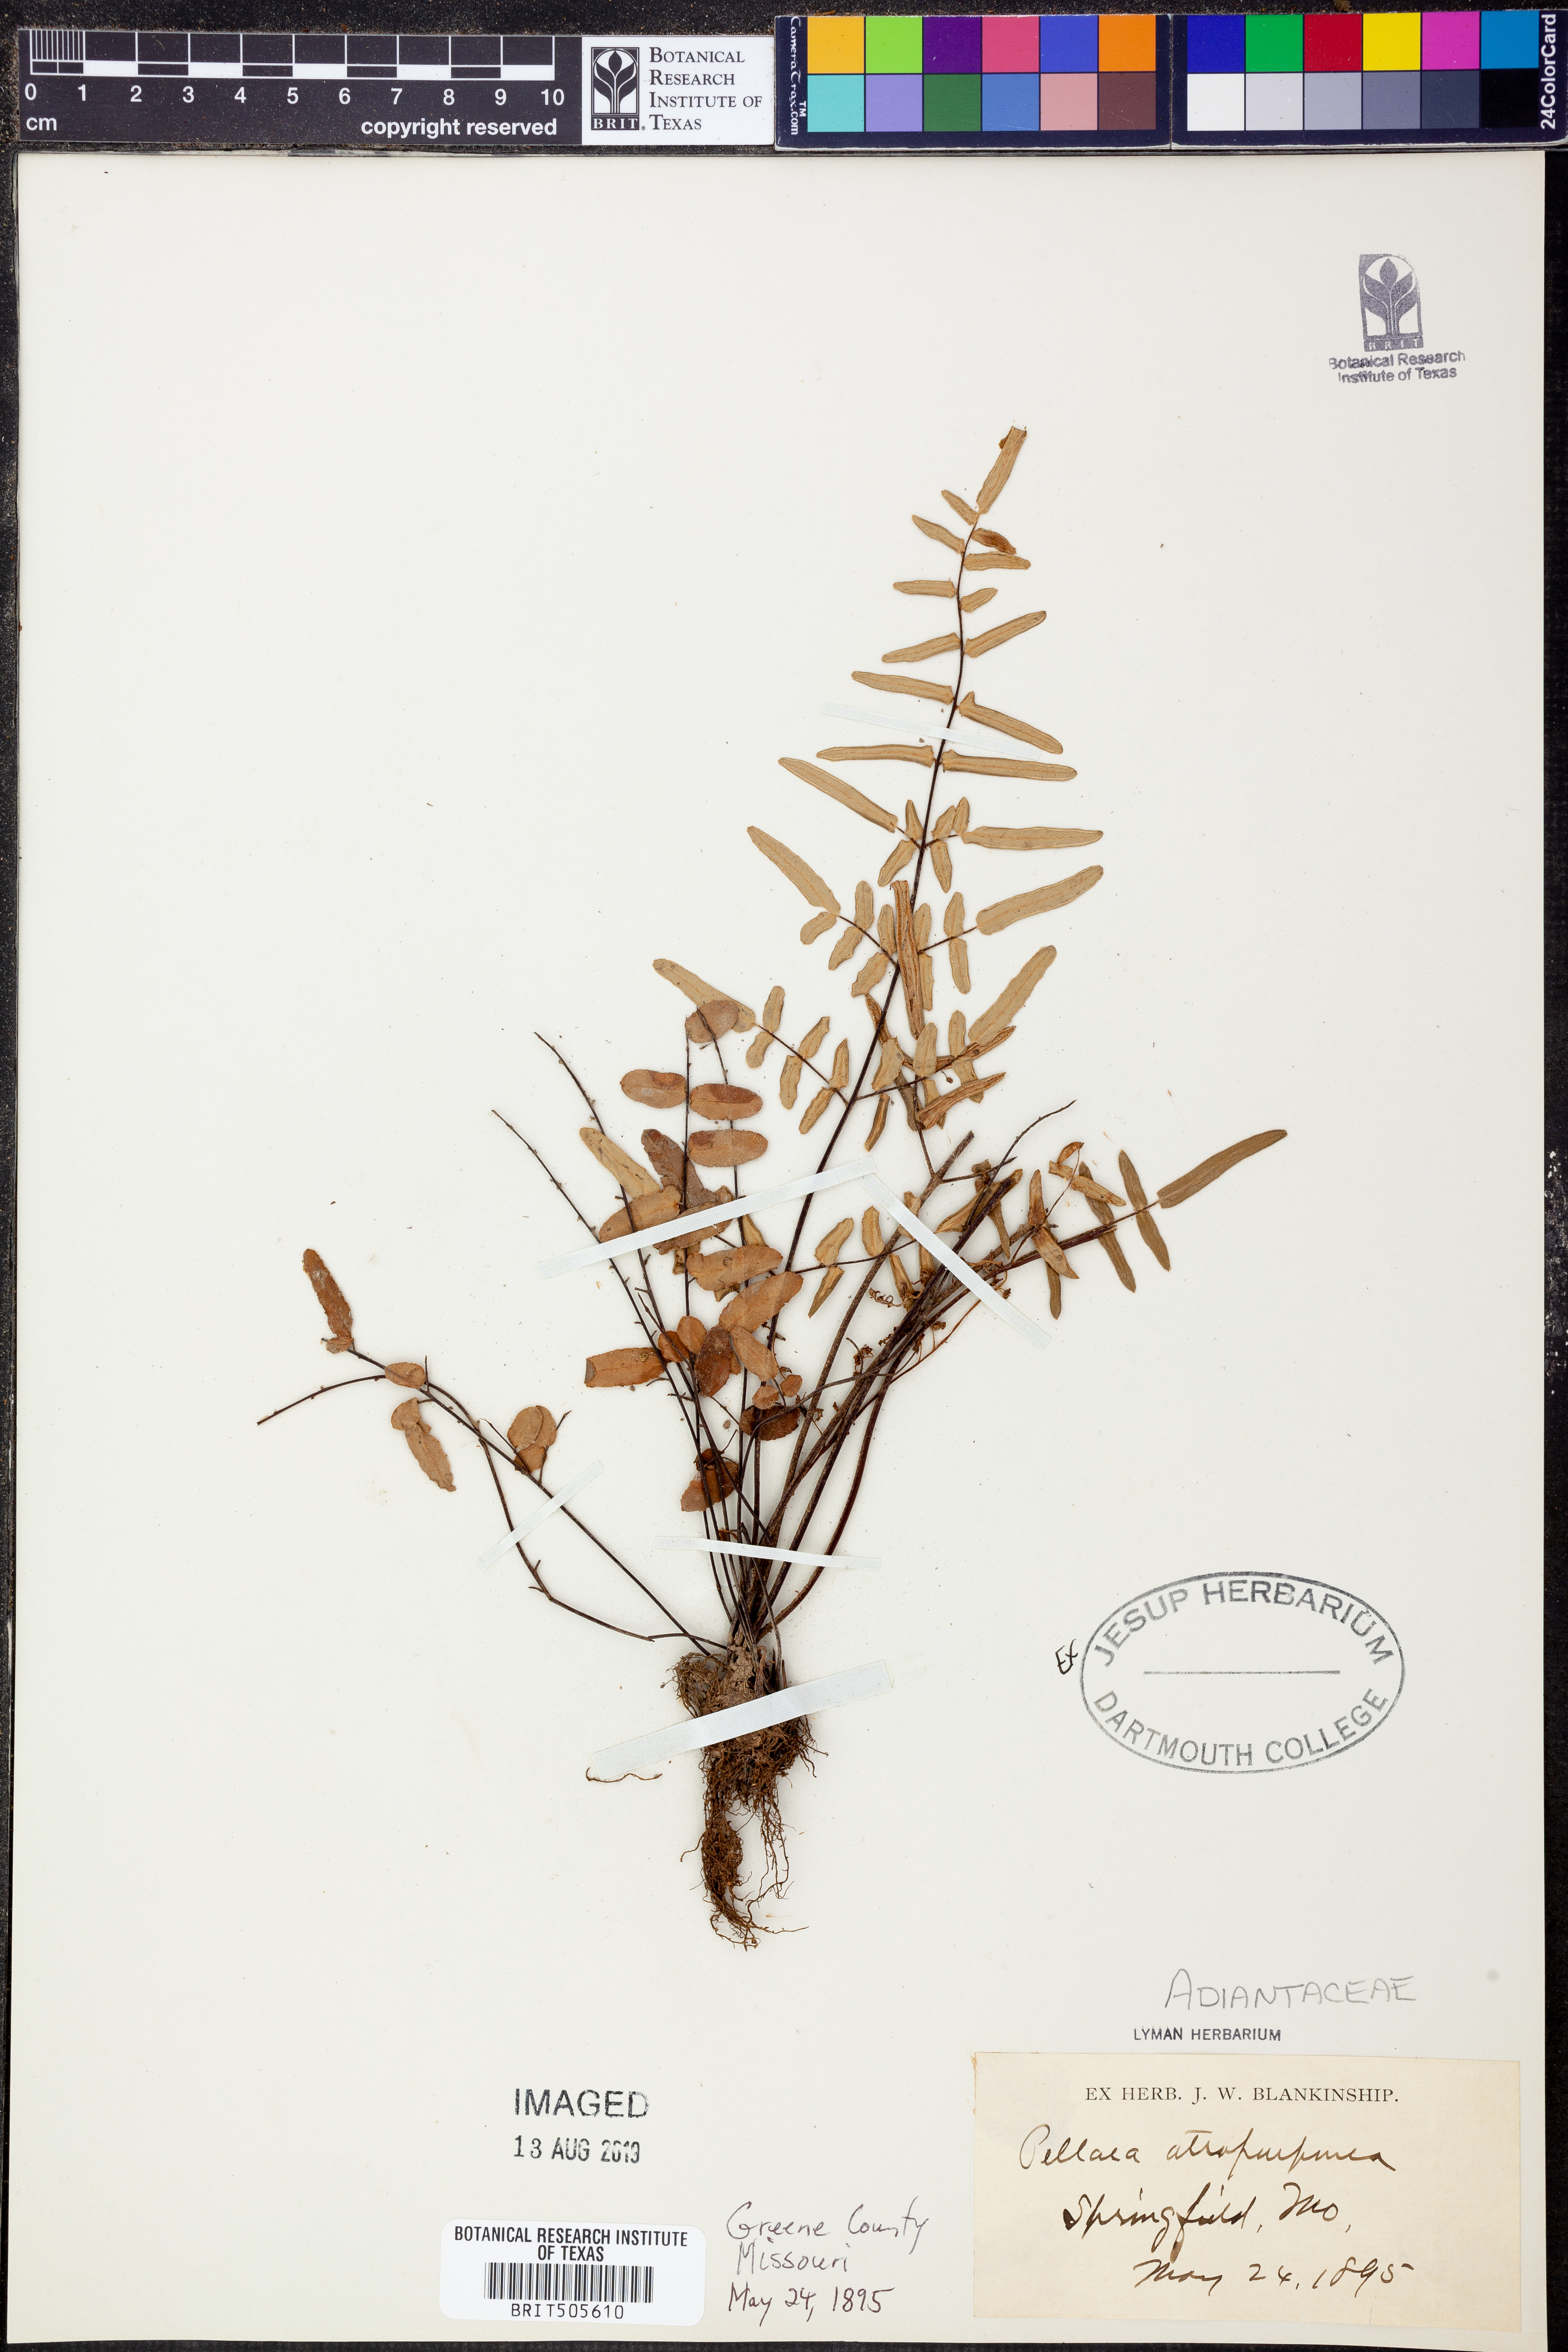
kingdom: Plantae
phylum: Tracheophyta
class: Polypodiopsida
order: Polypodiales
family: Pteridaceae
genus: Pellaea
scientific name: Pellaea atropurpurea
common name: Hairy cliffbrake
